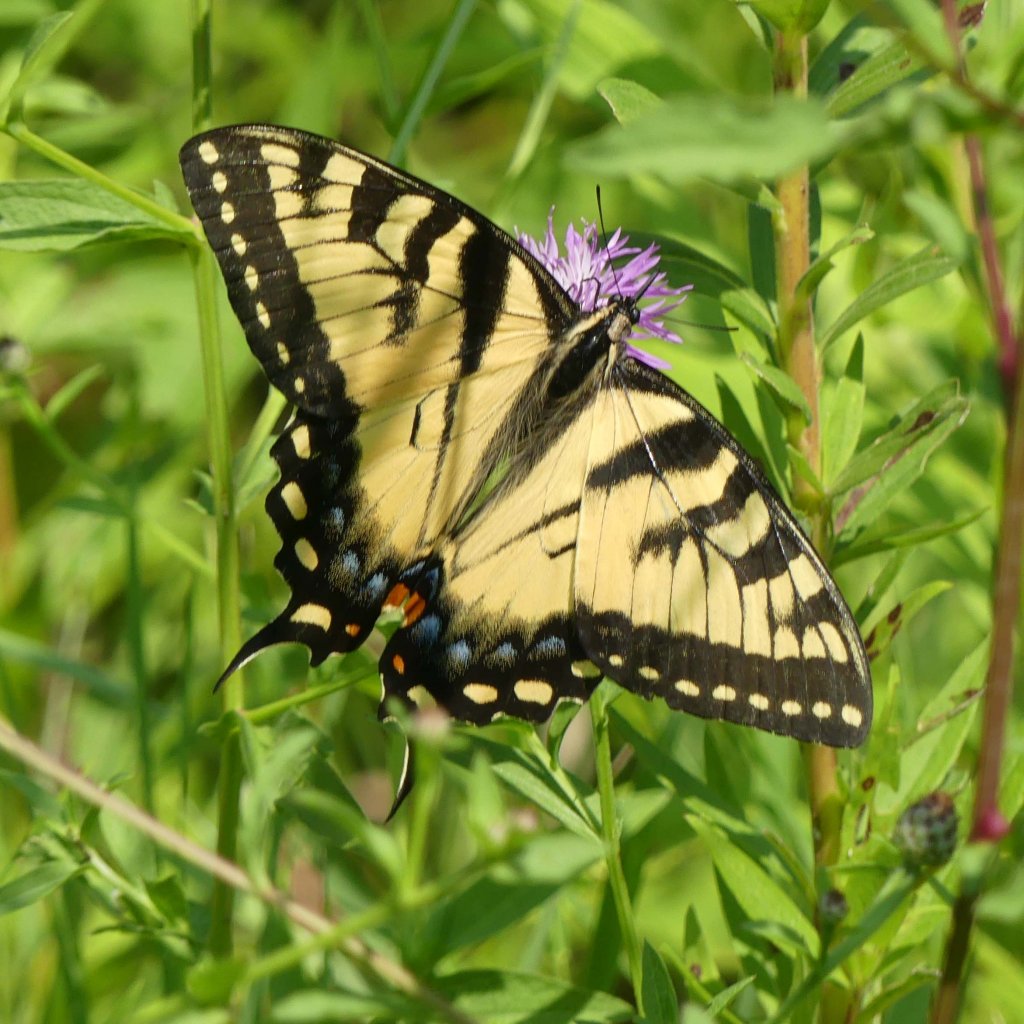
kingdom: Animalia
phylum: Arthropoda
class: Insecta
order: Lepidoptera
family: Papilionidae
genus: Pterourus
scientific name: Pterourus glaucus
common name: Eastern Tiger Swallowtail
